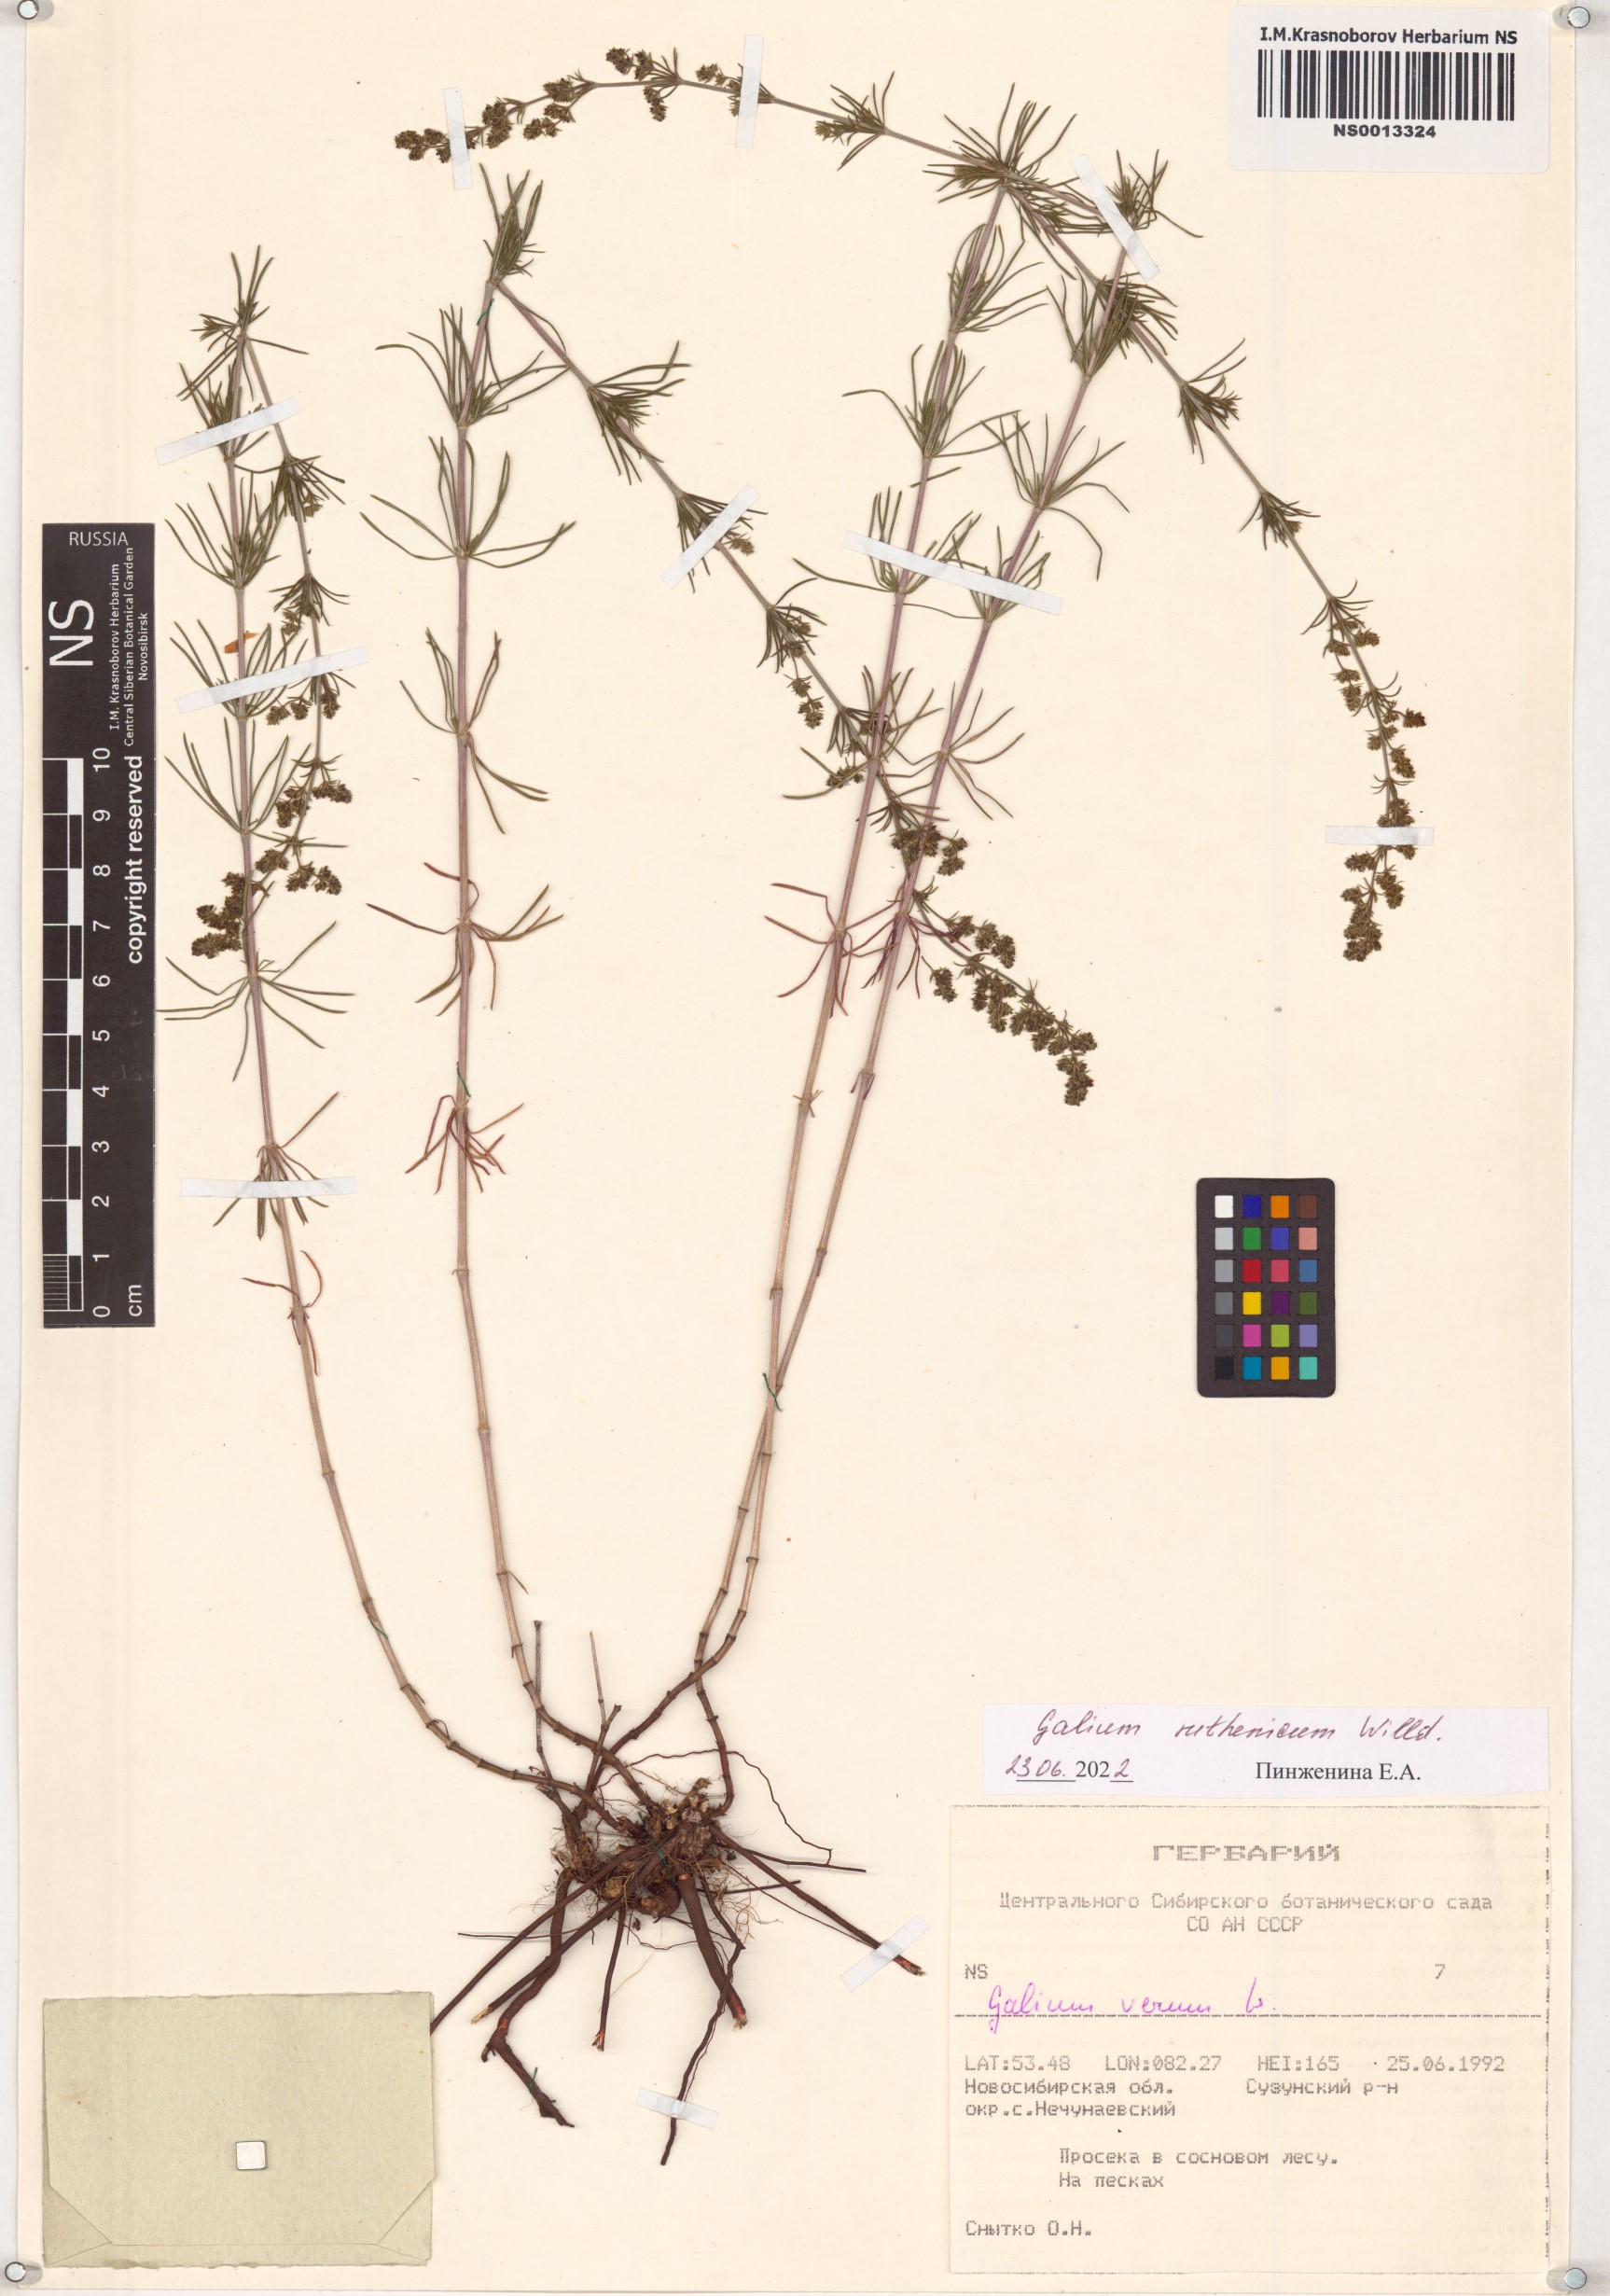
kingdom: Plantae
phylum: Tracheophyta
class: Magnoliopsida
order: Gentianales
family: Rubiaceae
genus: Galium
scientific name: Galium verum
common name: Lady's bedstraw
